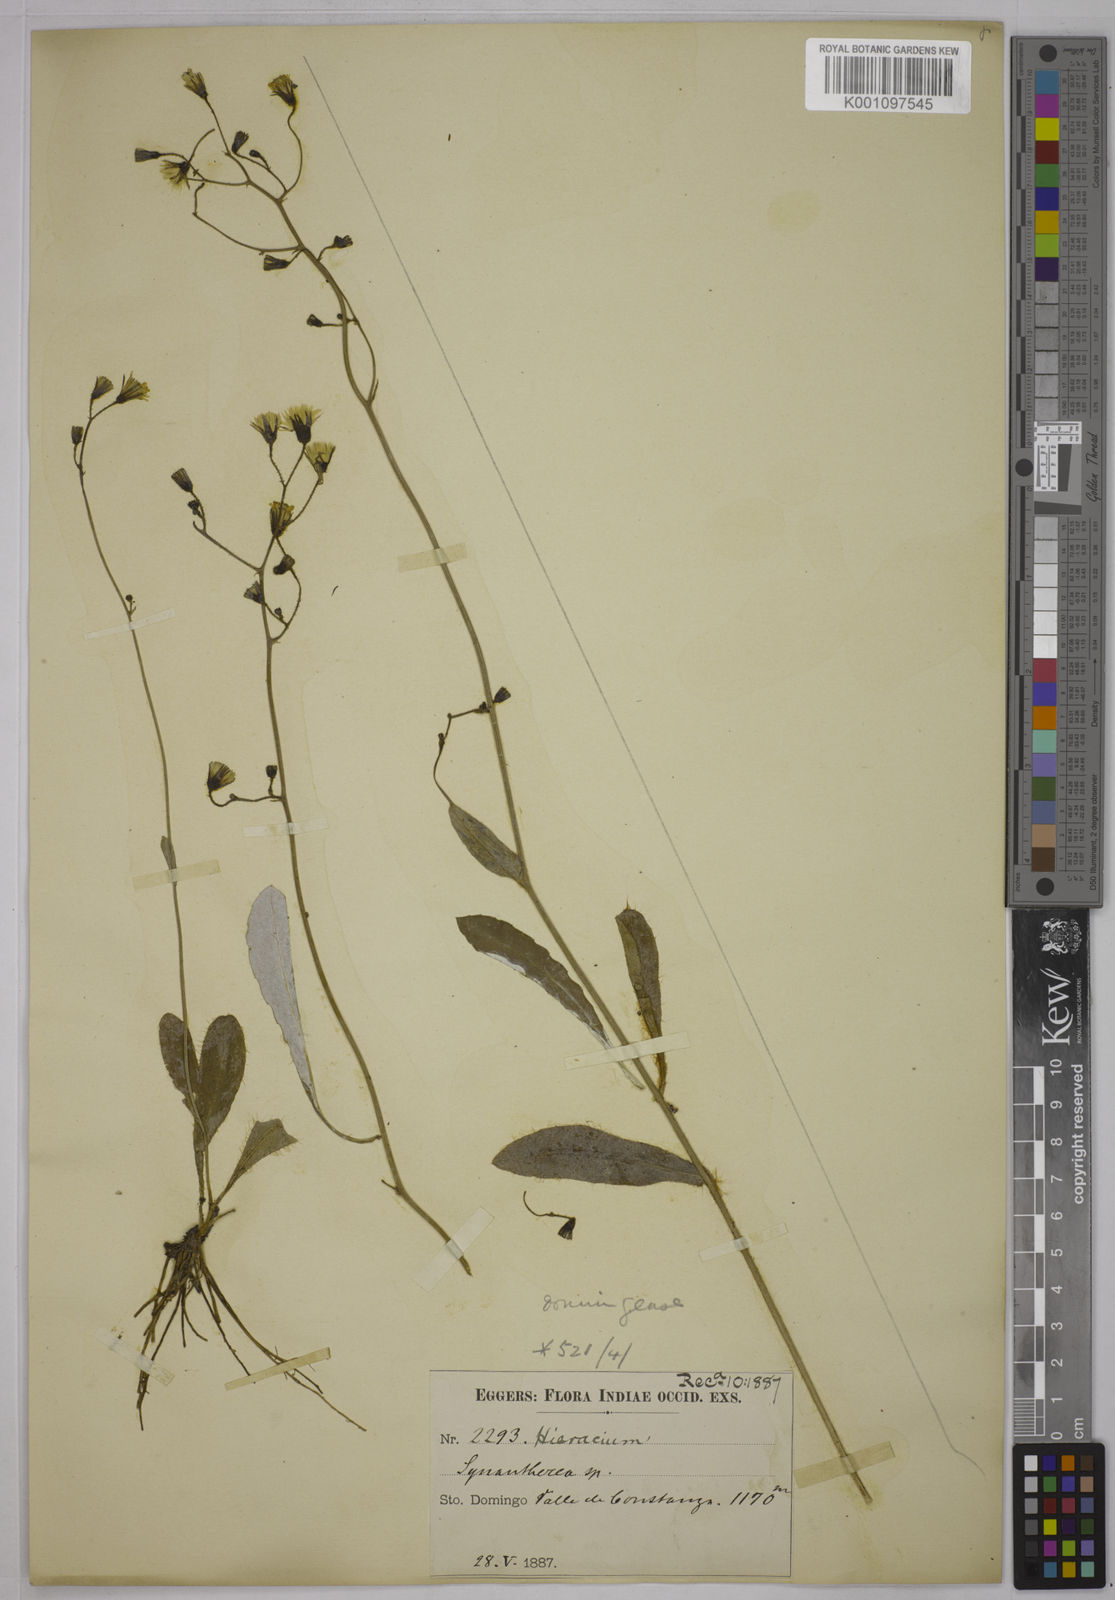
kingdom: Plantae
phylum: Tracheophyta
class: Magnoliopsida
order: Asterales
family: Asteraceae
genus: Hieracium
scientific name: Hieracium gronovii
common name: Beaked hawkweed
